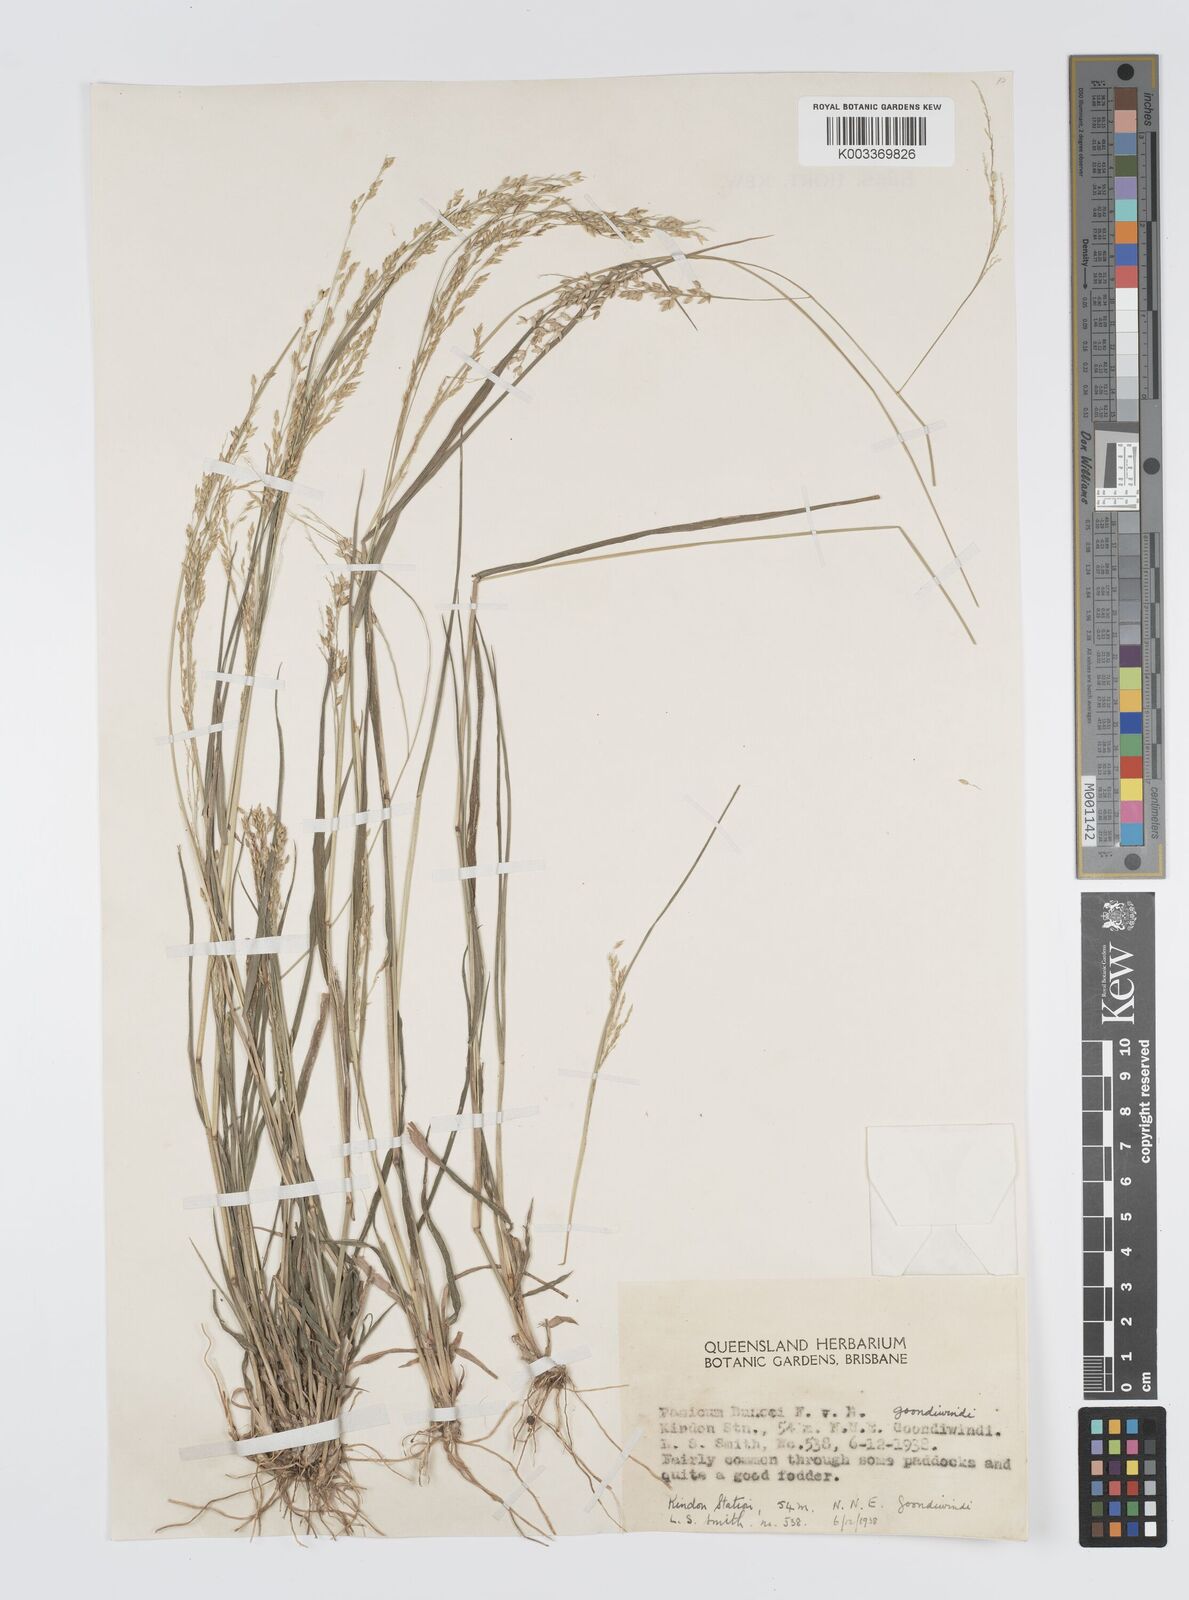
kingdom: Plantae
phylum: Tracheophyta
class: Liliopsida
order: Poales
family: Poaceae
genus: Panicum
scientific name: Panicum buncei
